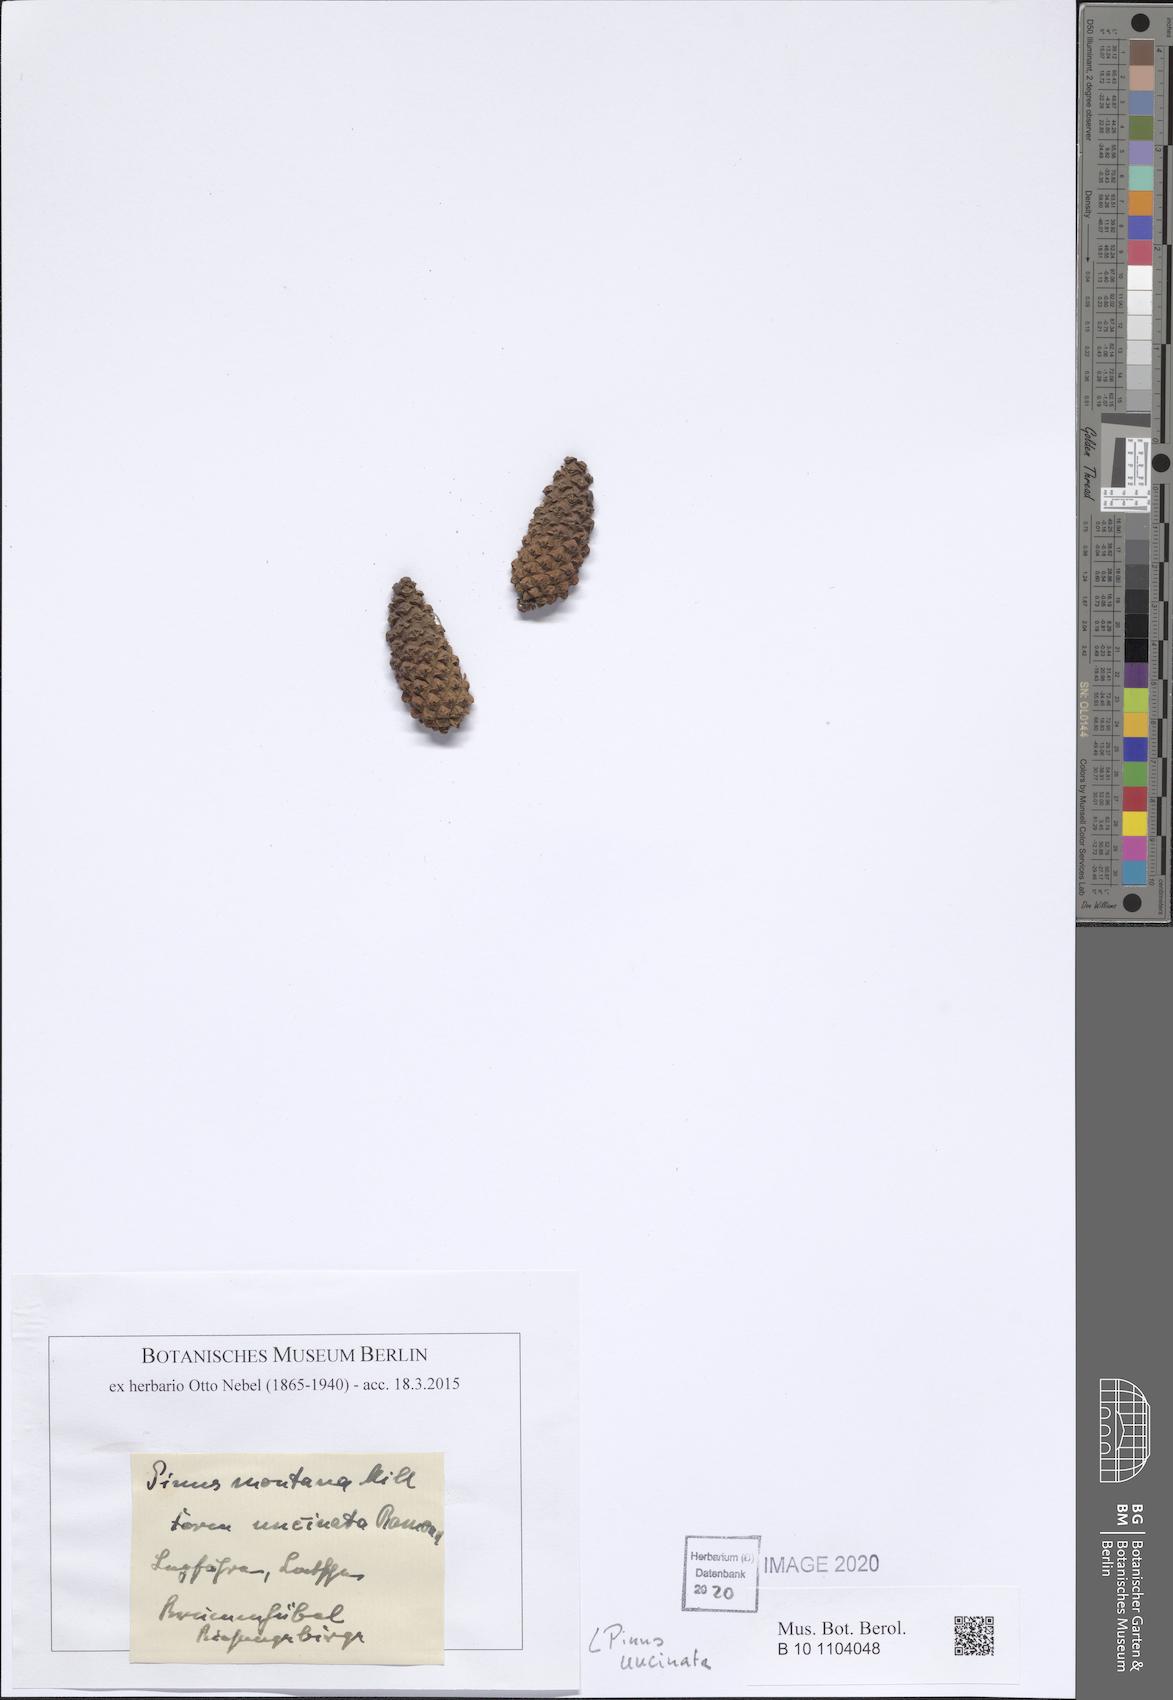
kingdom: Plantae
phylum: Tracheophyta
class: Pinopsida
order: Pinales
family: Pinaceae
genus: Pinus
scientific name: Pinus uncinata
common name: Mountain pine
